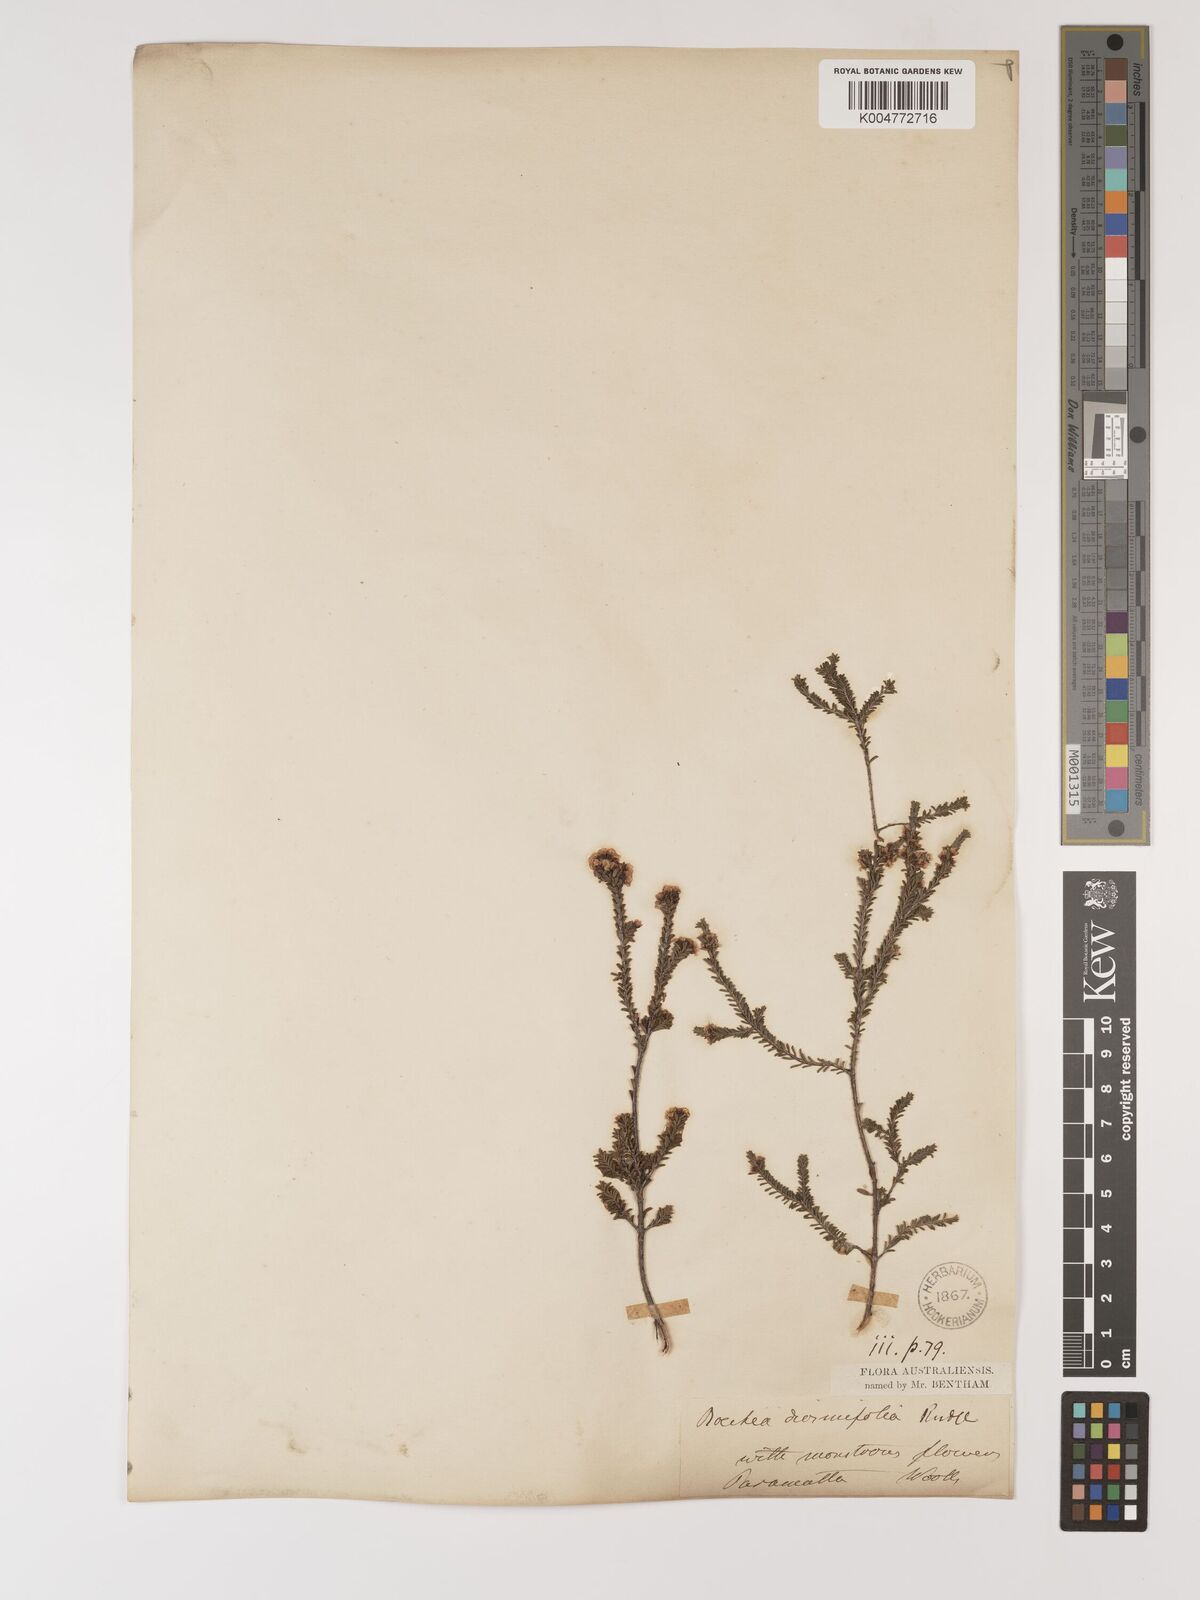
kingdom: Plantae
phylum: Tracheophyta
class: Magnoliopsida
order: Myrtales
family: Myrtaceae
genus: Baeckea
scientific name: Baeckea diosmifolia
